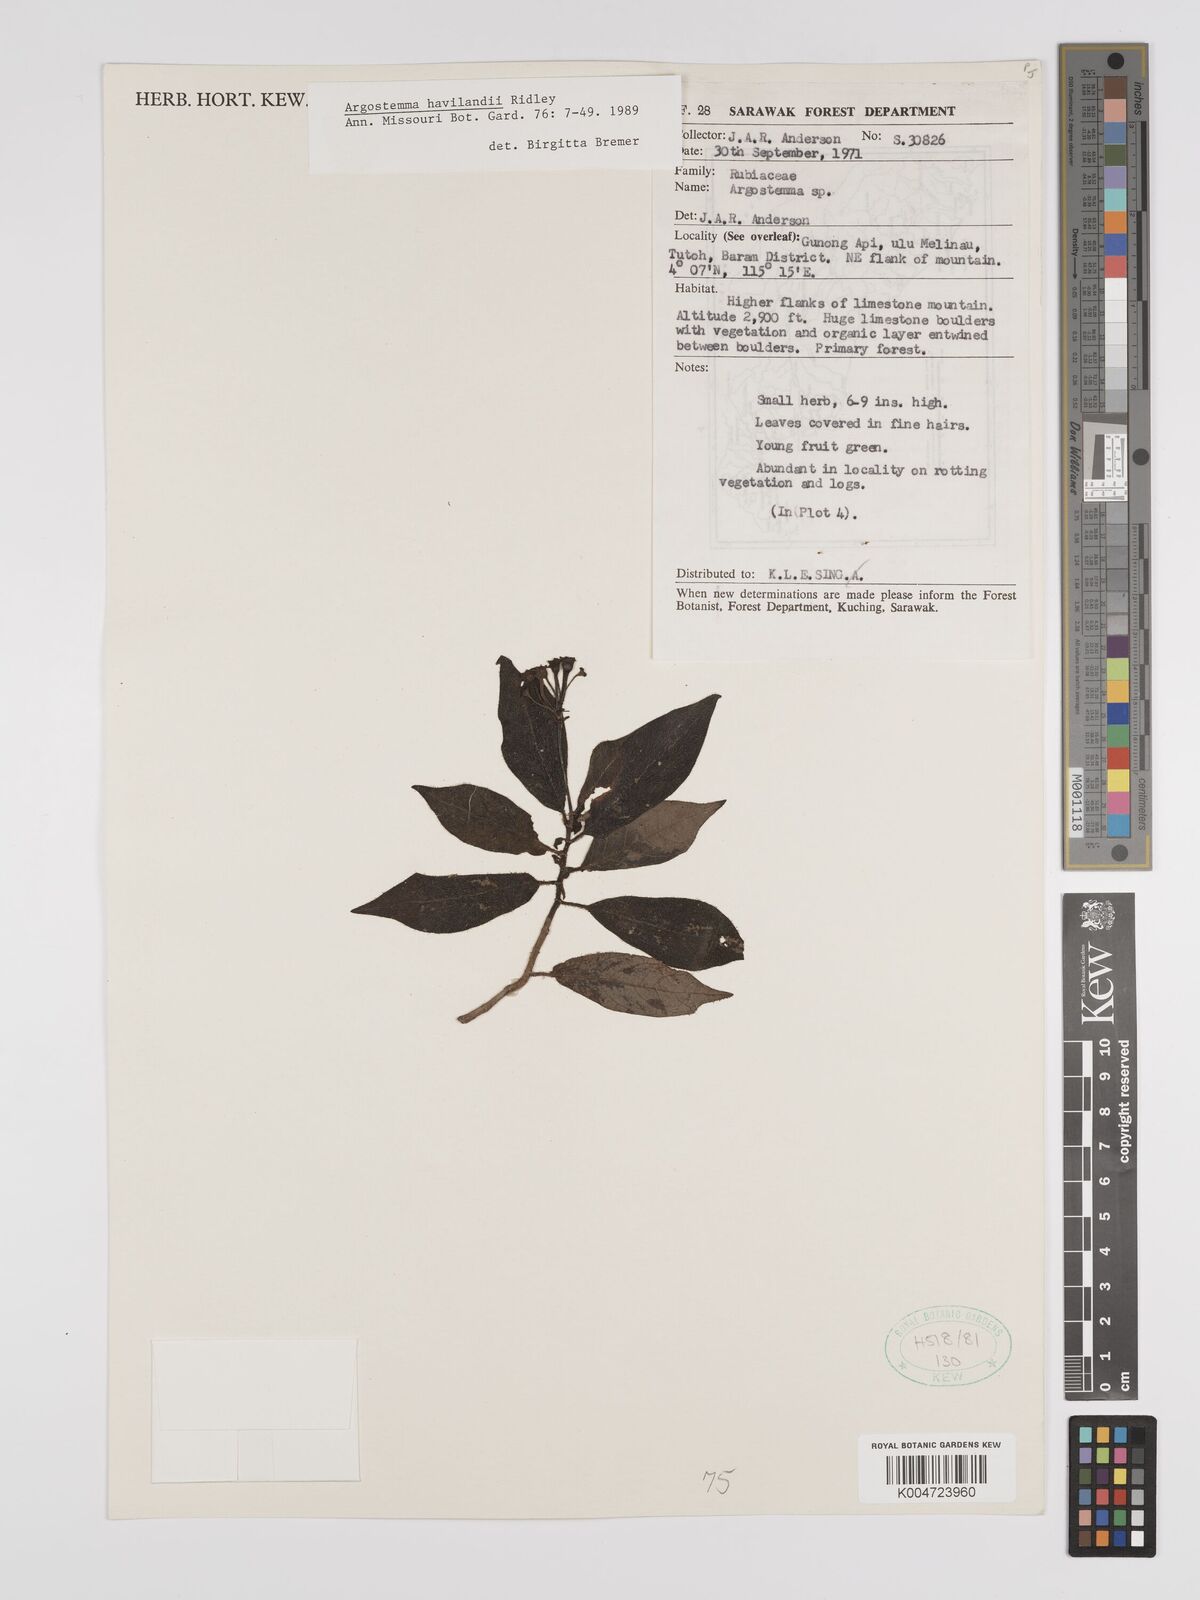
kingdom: Plantae
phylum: Tracheophyta
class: Magnoliopsida
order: Gentianales
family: Rubiaceae
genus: Argostemma
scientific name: Argostemma havilandii
